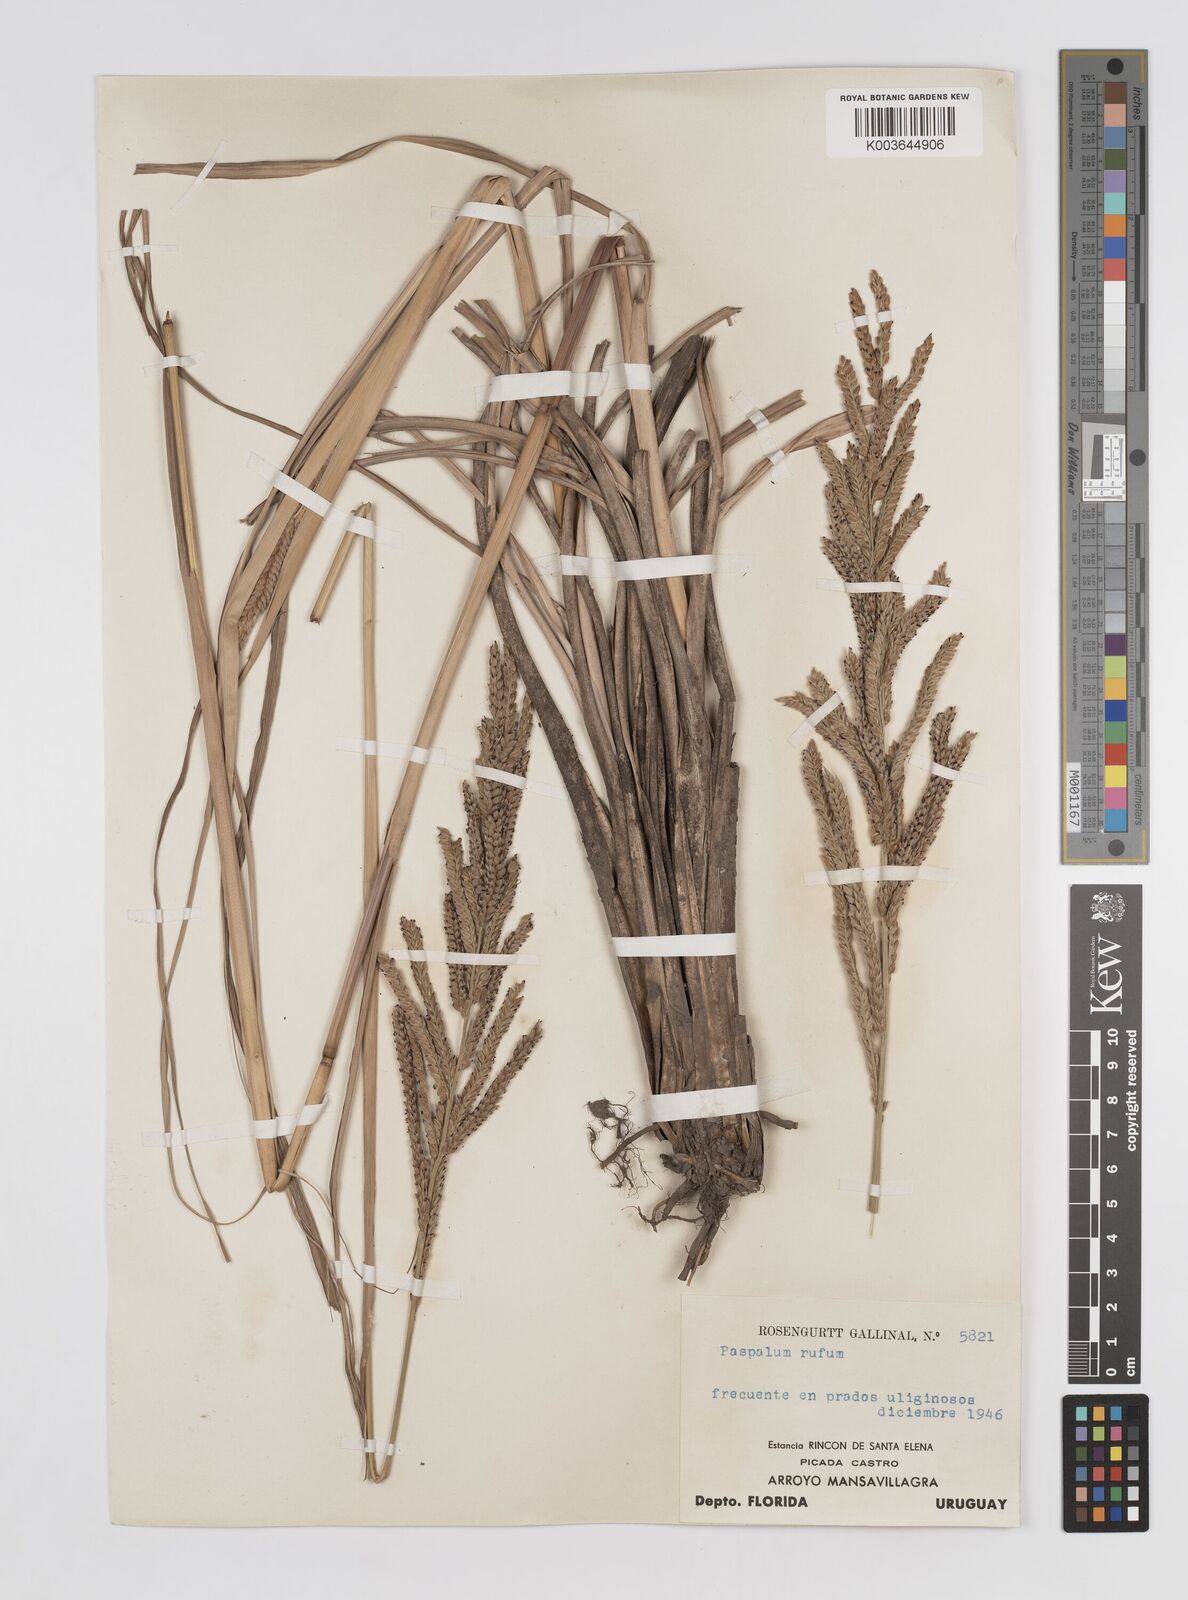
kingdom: Plantae
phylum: Tracheophyta
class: Liliopsida
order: Poales
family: Poaceae
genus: Paspalum
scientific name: Paspalum rufum
